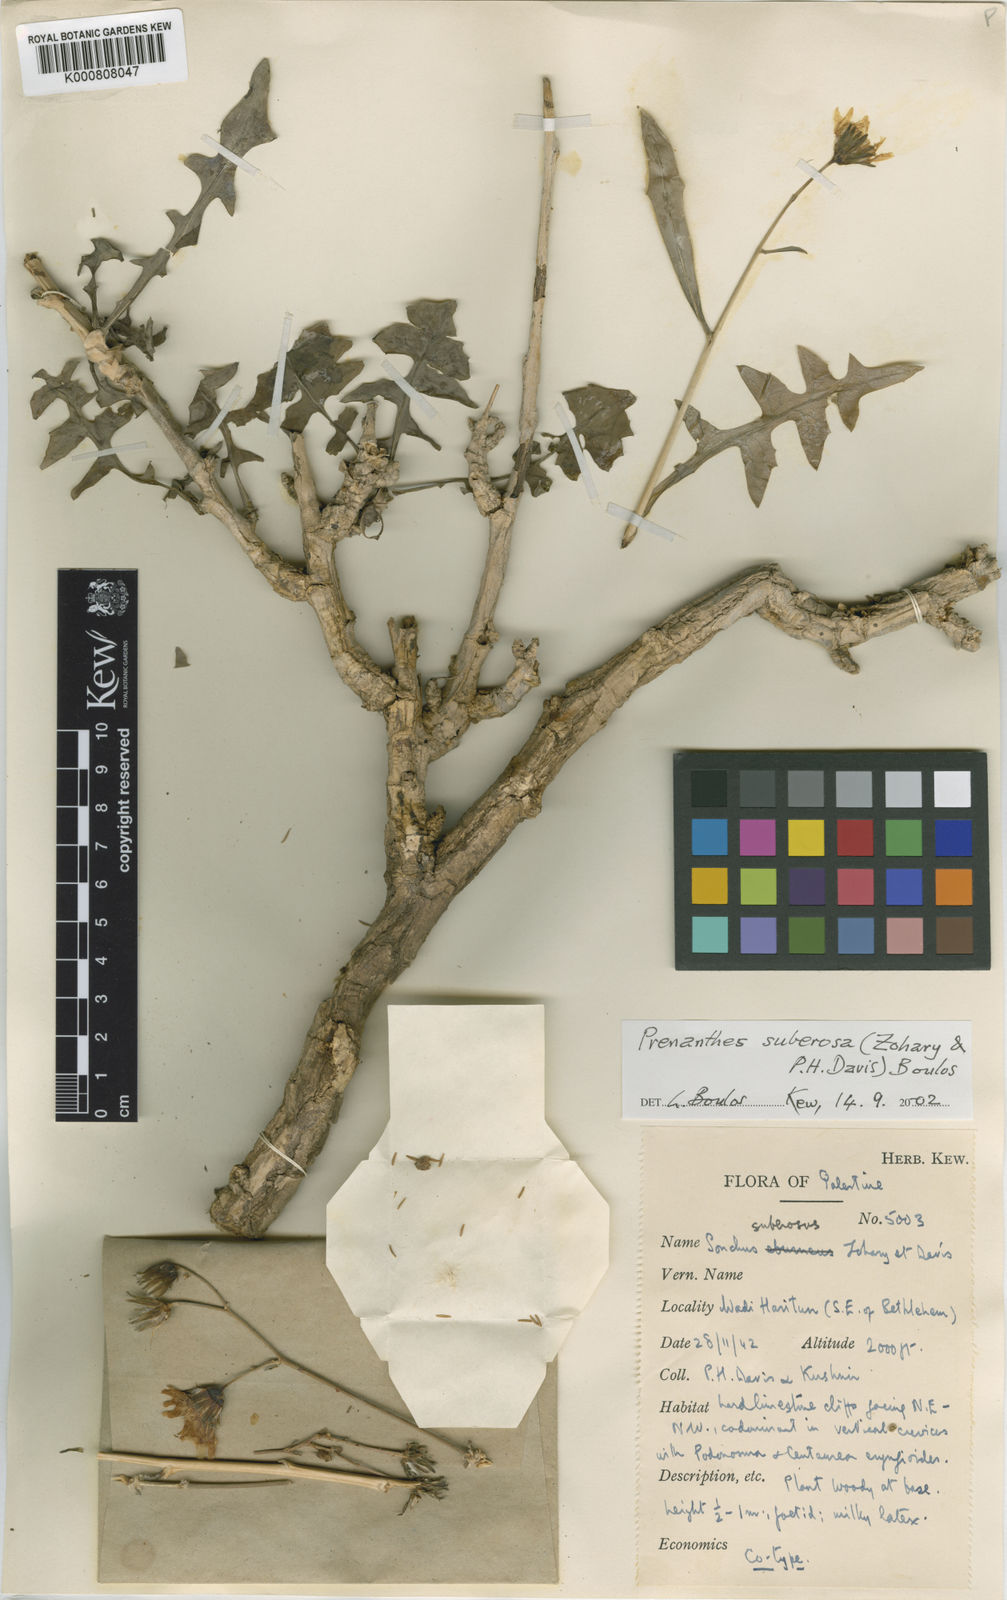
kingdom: Plantae
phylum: Tracheophyta
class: Magnoliopsida
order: Asterales
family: Asteraceae
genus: Sonchus
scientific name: Sonchus suberosus
